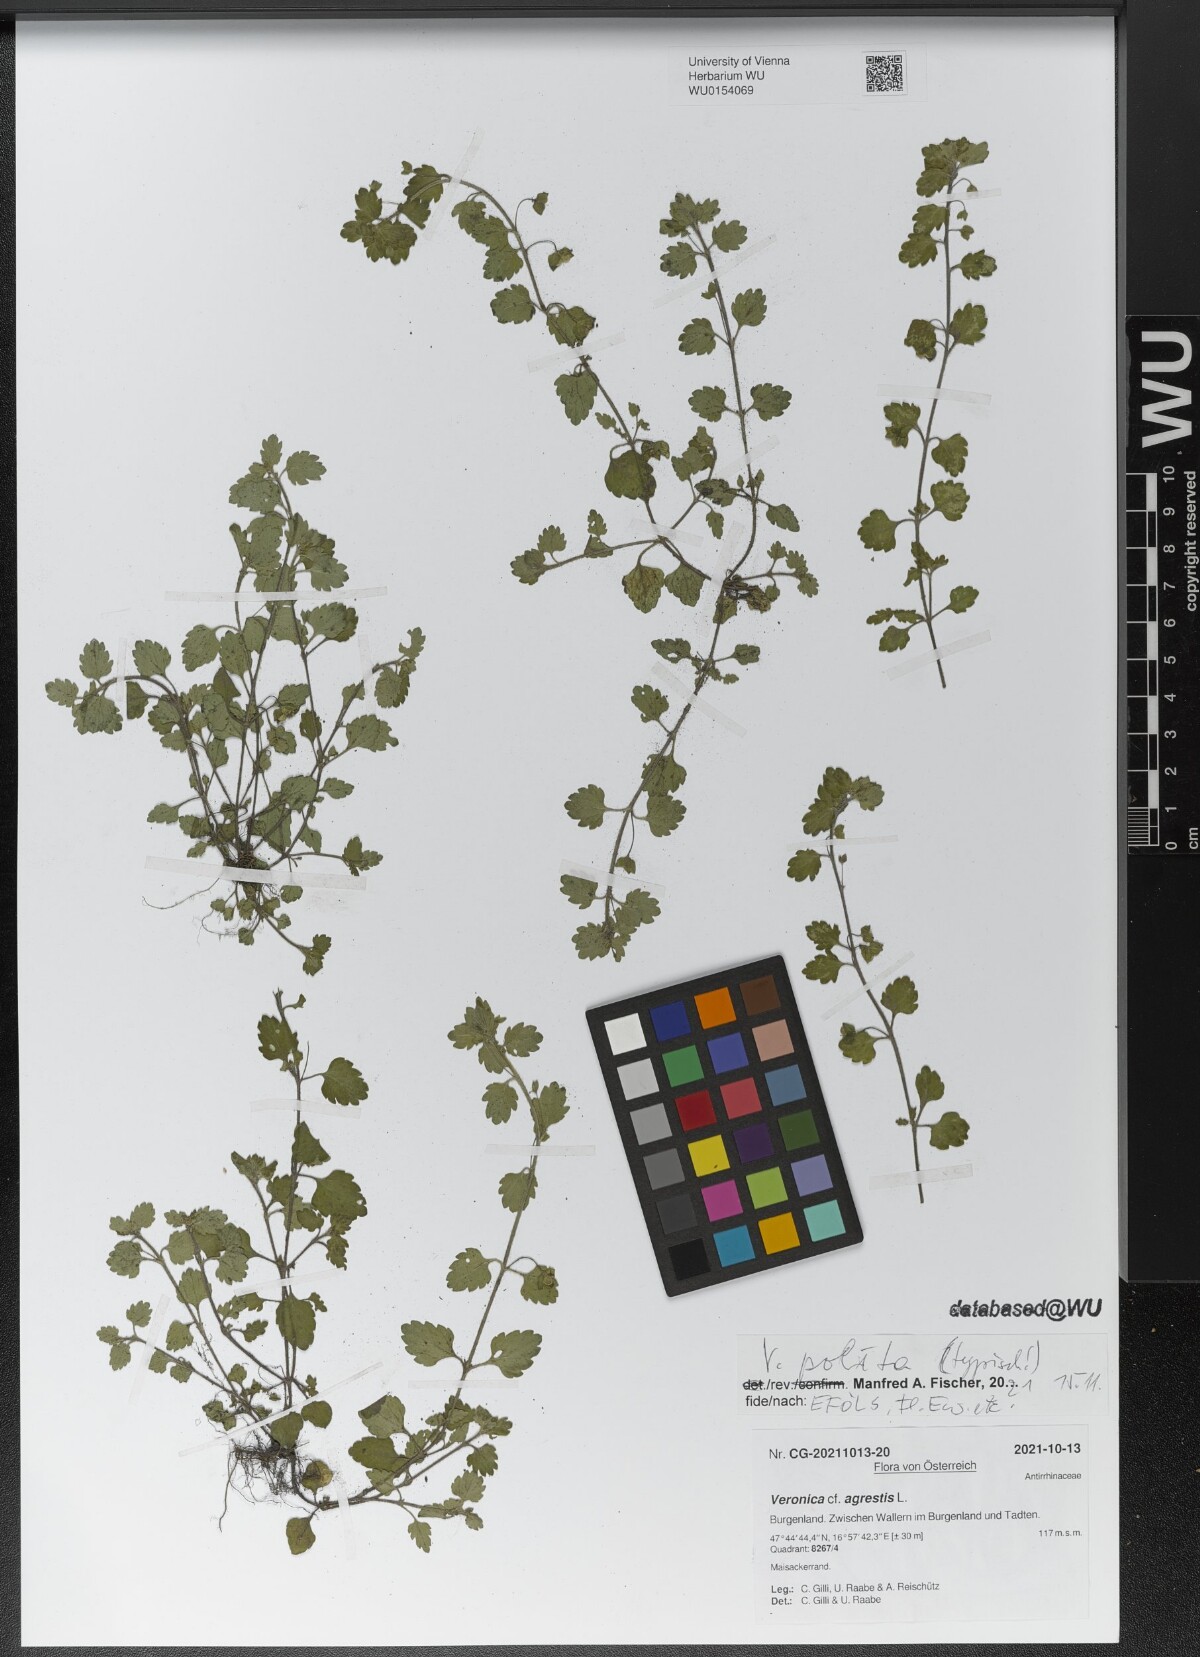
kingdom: Plantae
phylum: Tracheophyta
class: Magnoliopsida
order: Lamiales
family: Plantaginaceae
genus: Veronica
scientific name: Veronica polita
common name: Grey field-speedwell
